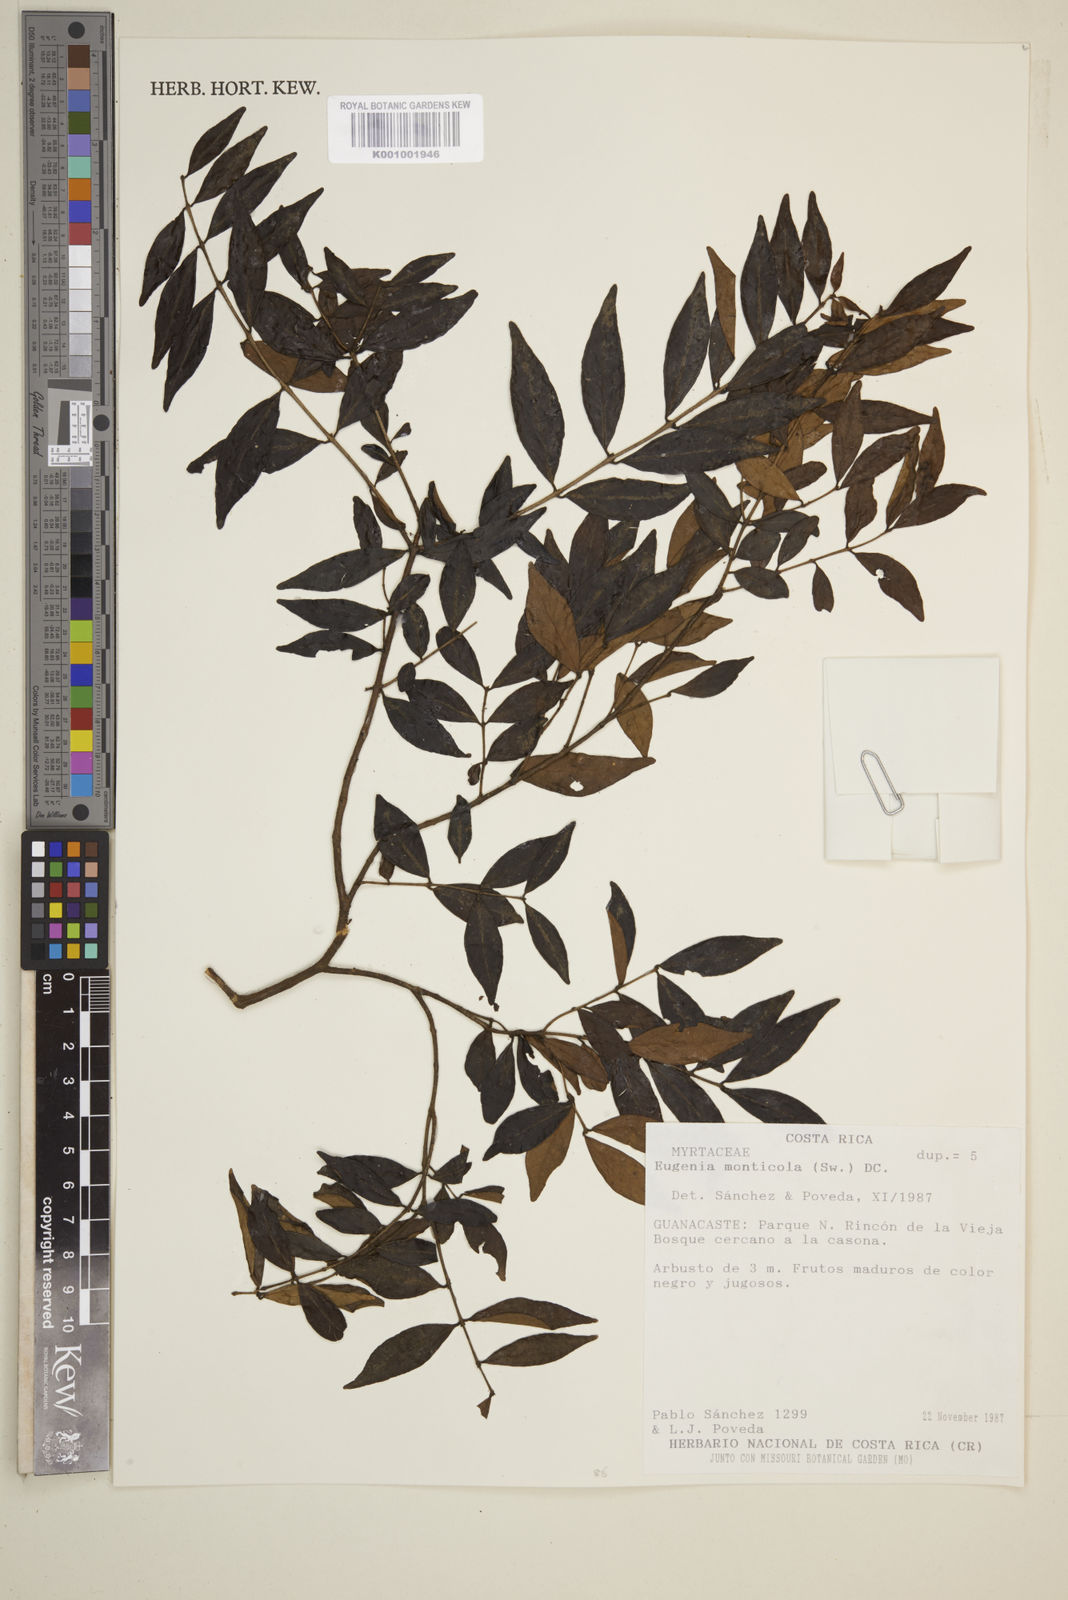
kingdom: Plantae
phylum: Tracheophyta
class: Magnoliopsida
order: Myrtales
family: Myrtaceae
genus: Eugenia
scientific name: Eugenia monticola
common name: Birds berry
